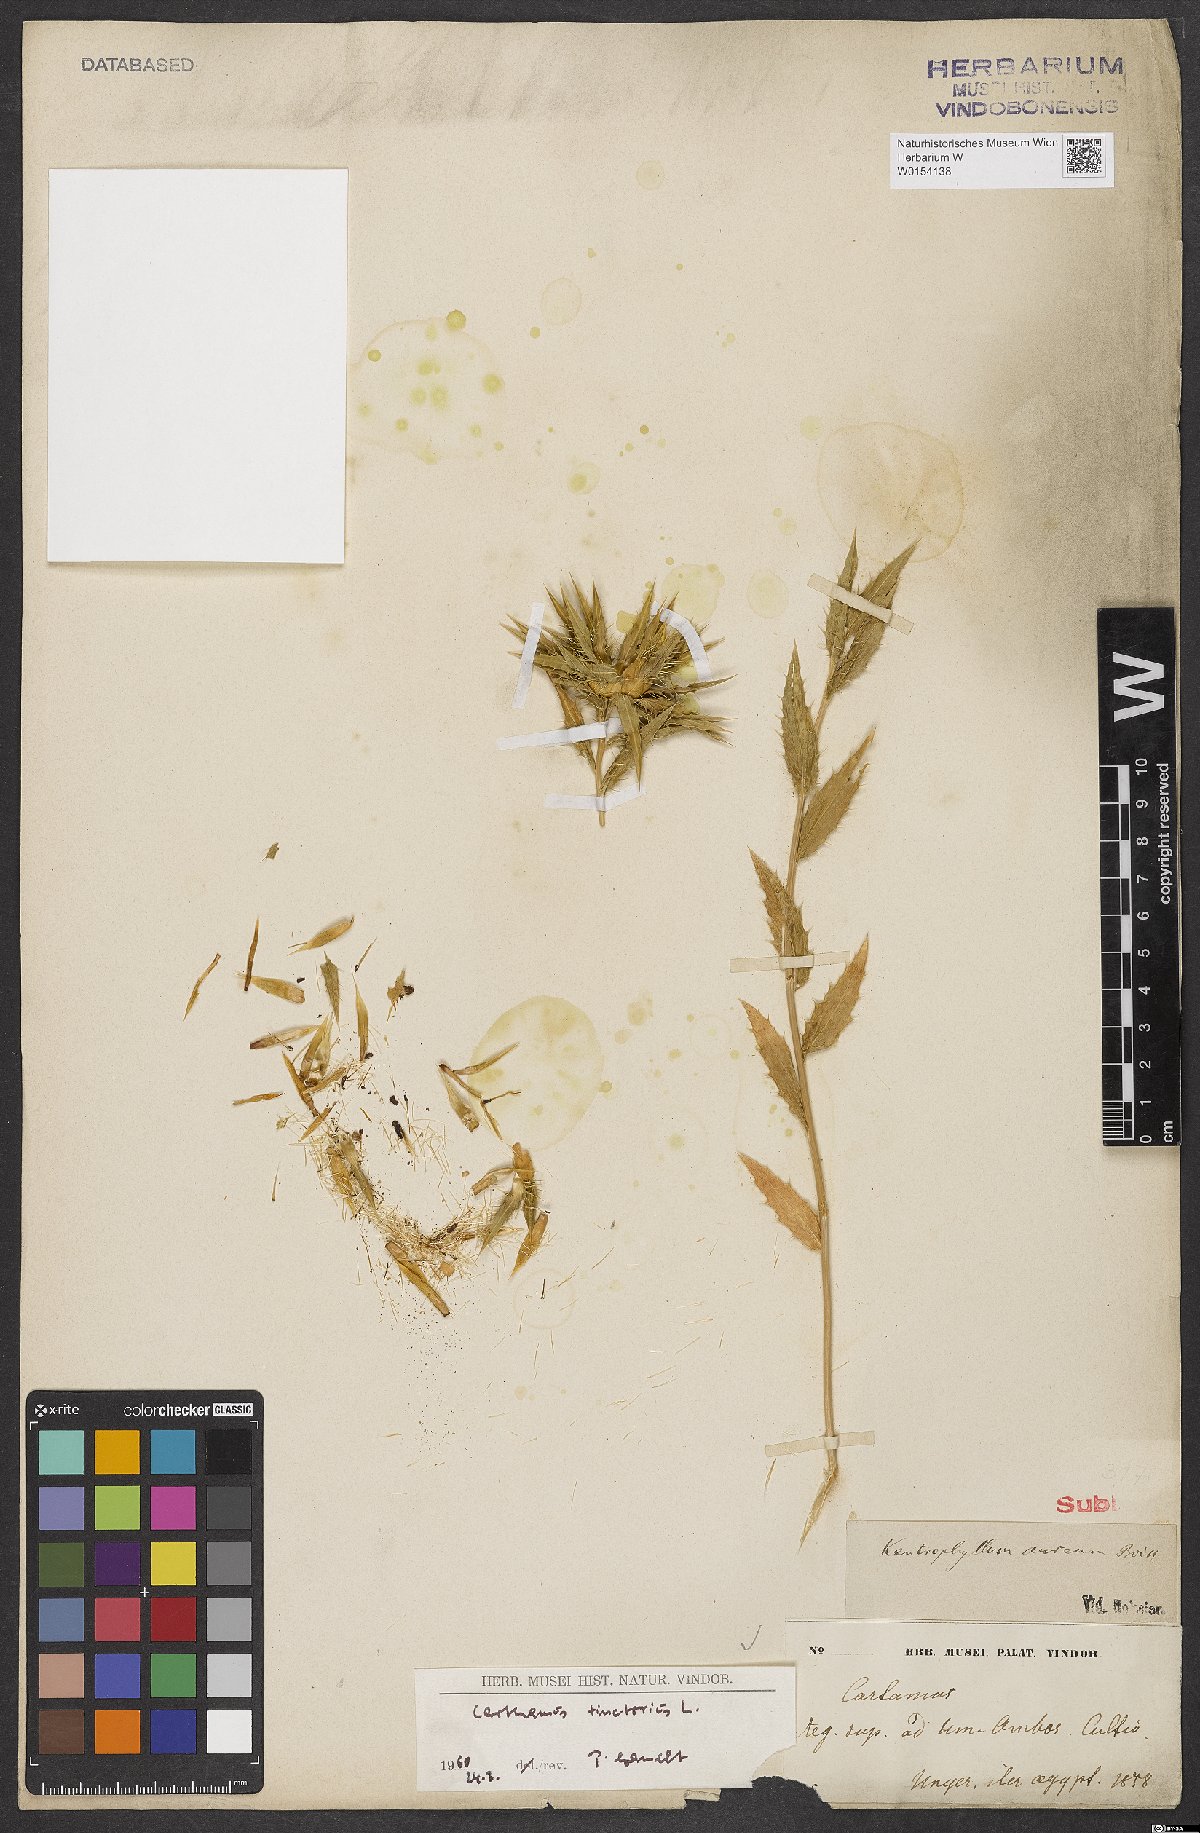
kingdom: Plantae
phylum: Tracheophyta
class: Magnoliopsida
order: Asterales
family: Asteraceae
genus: Carthamus
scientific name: Carthamus tinctorius
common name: Safflower
